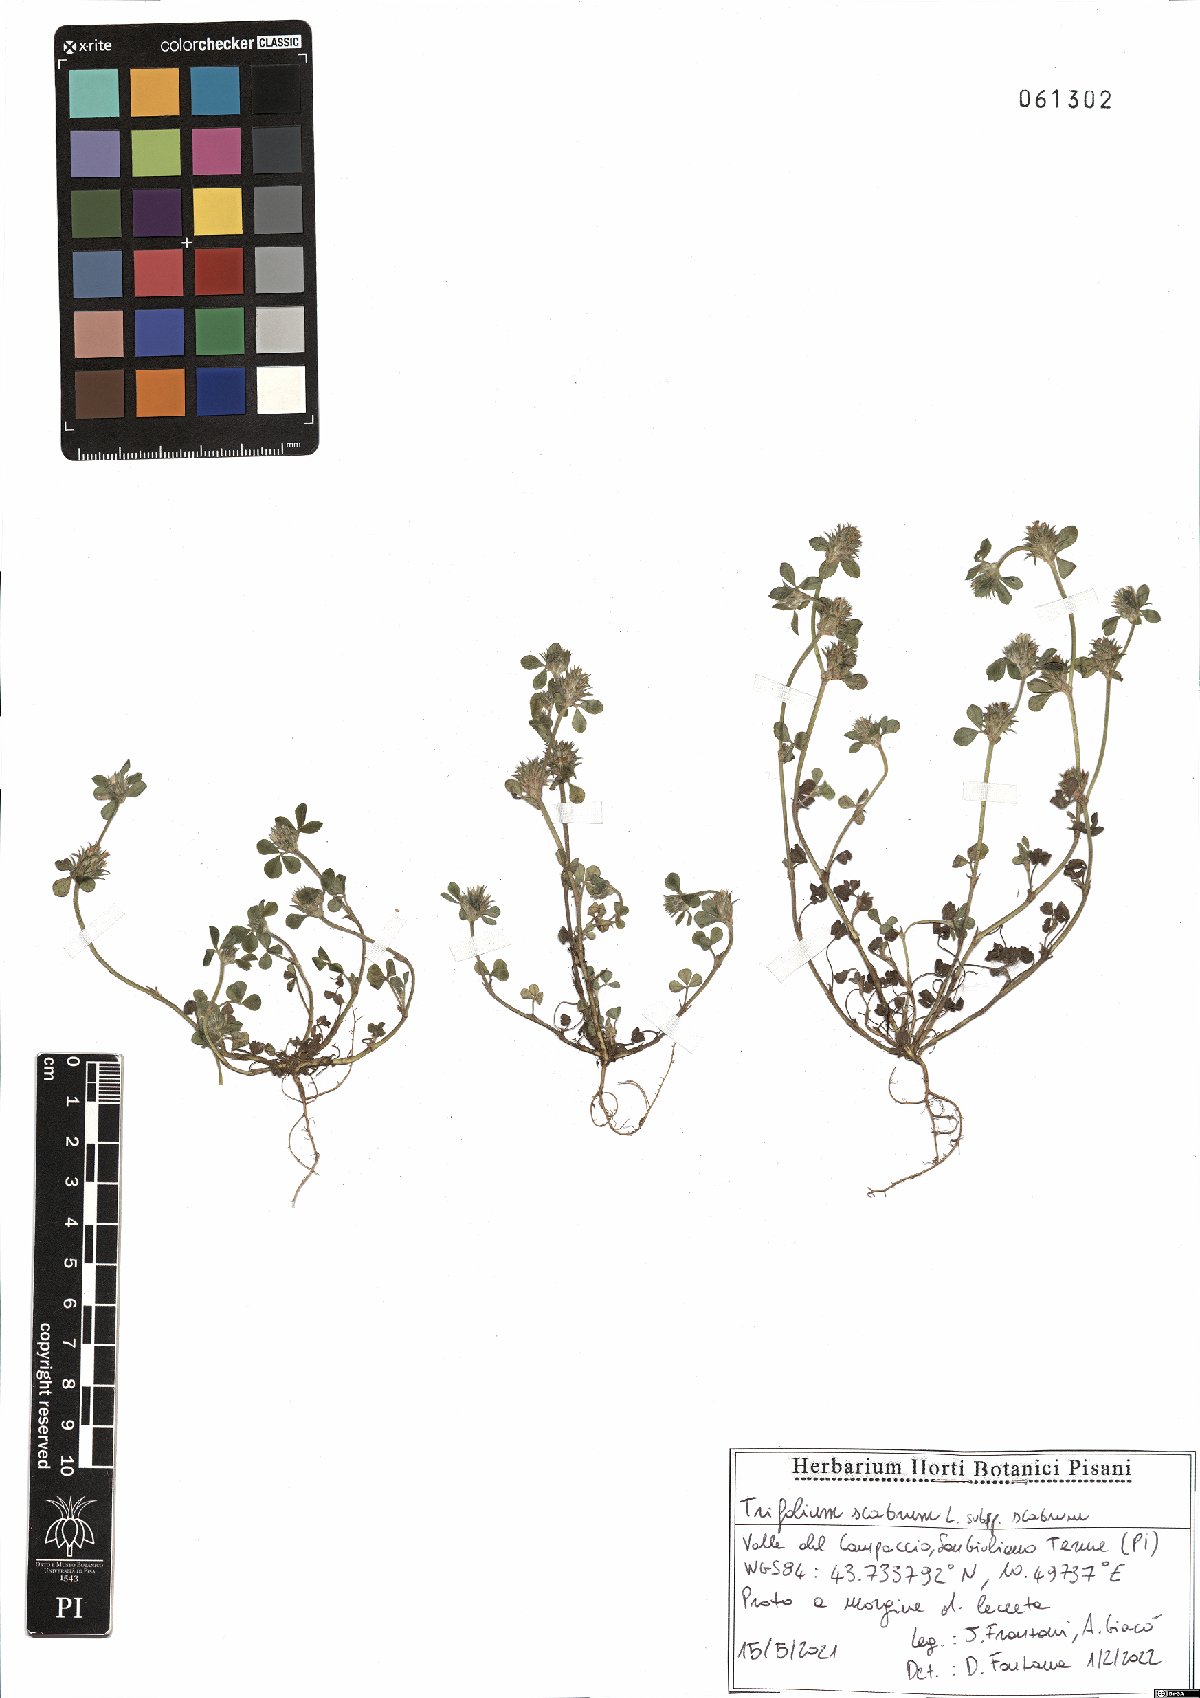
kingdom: Plantae
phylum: Tracheophyta
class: Magnoliopsida
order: Fabales
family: Fabaceae
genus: Trifolium
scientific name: Trifolium scabrum
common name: Rough clover
